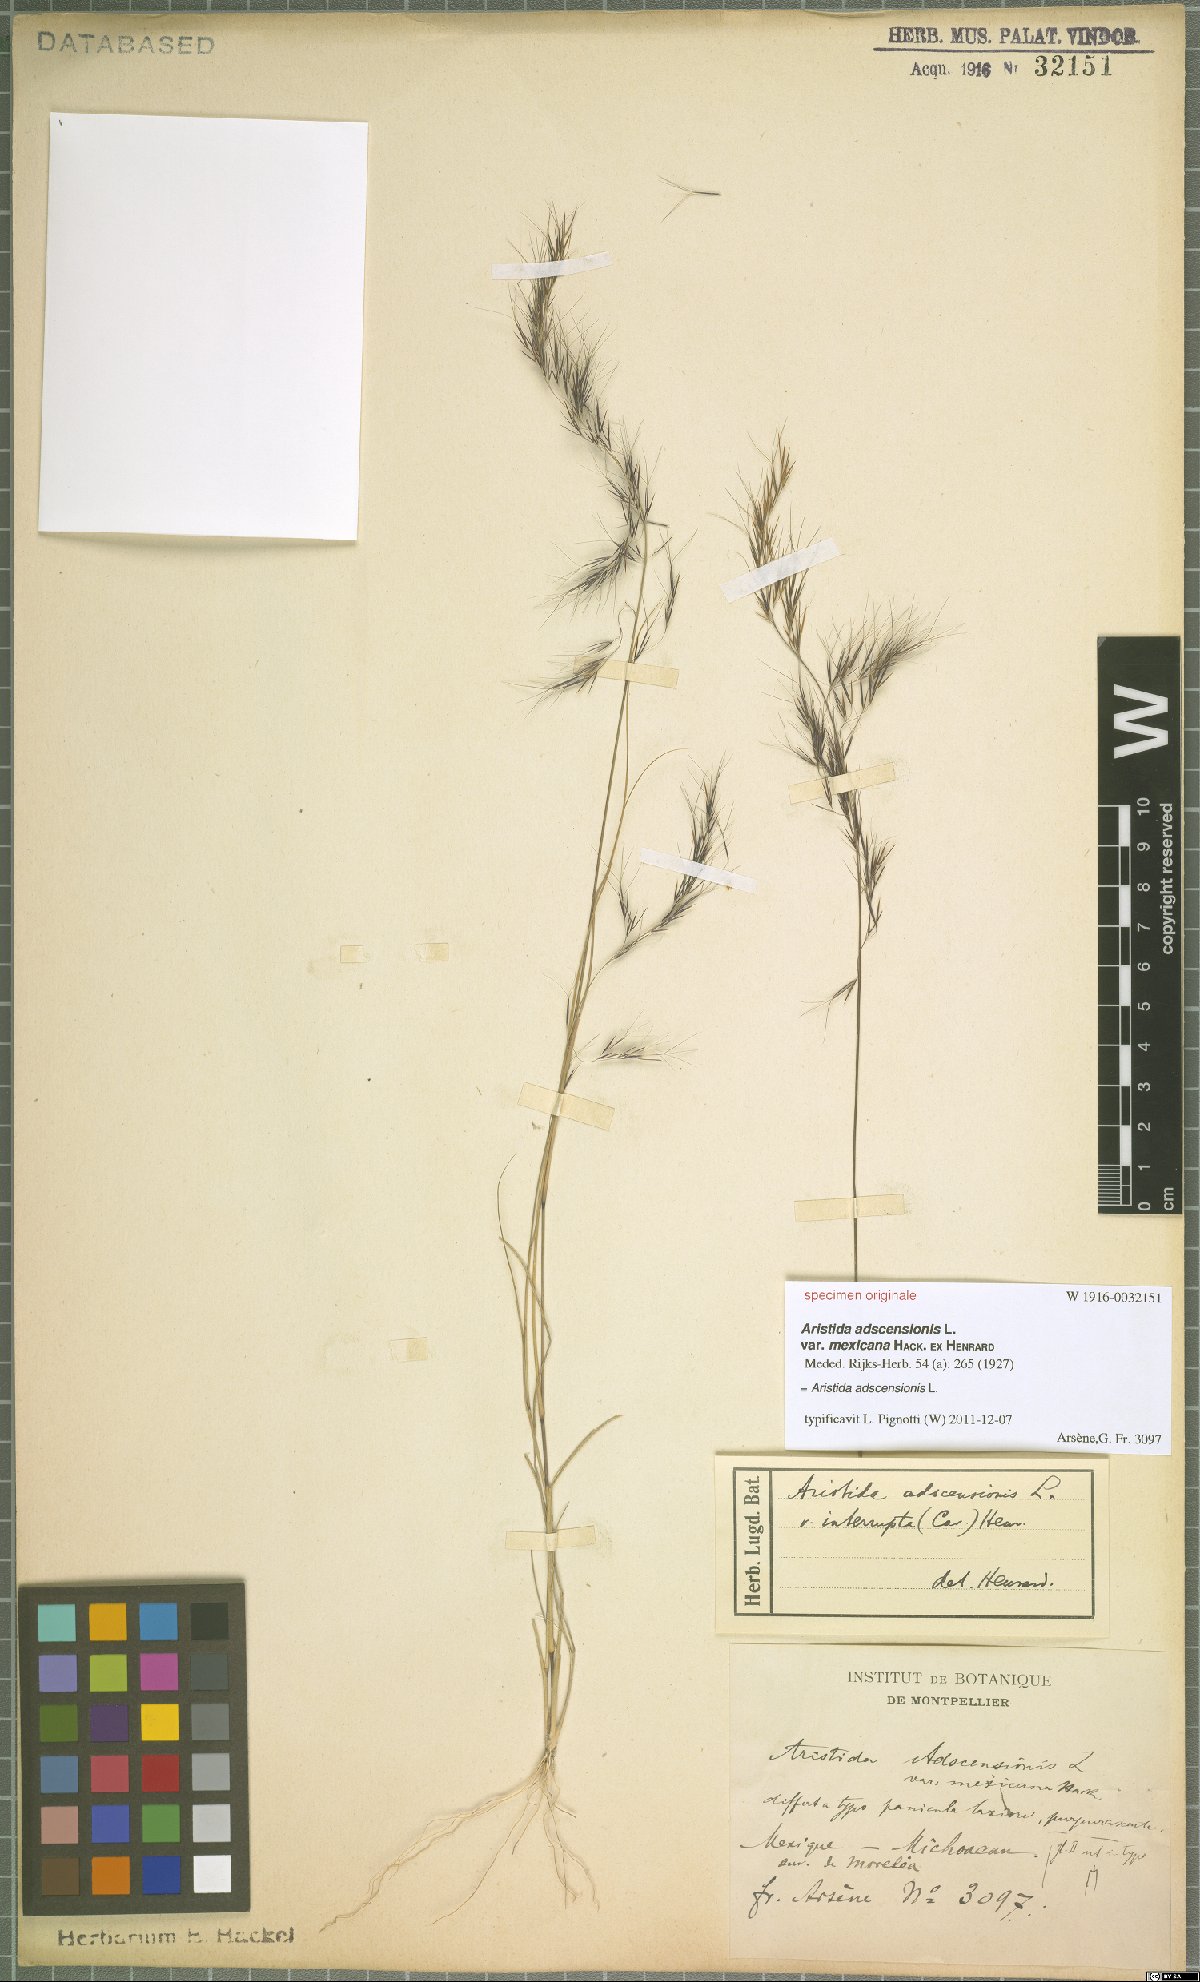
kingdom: Plantae
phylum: Tracheophyta
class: Liliopsida
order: Poales
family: Poaceae
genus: Aristida
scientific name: Aristida adscensionis
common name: Sixweeks threeawn
